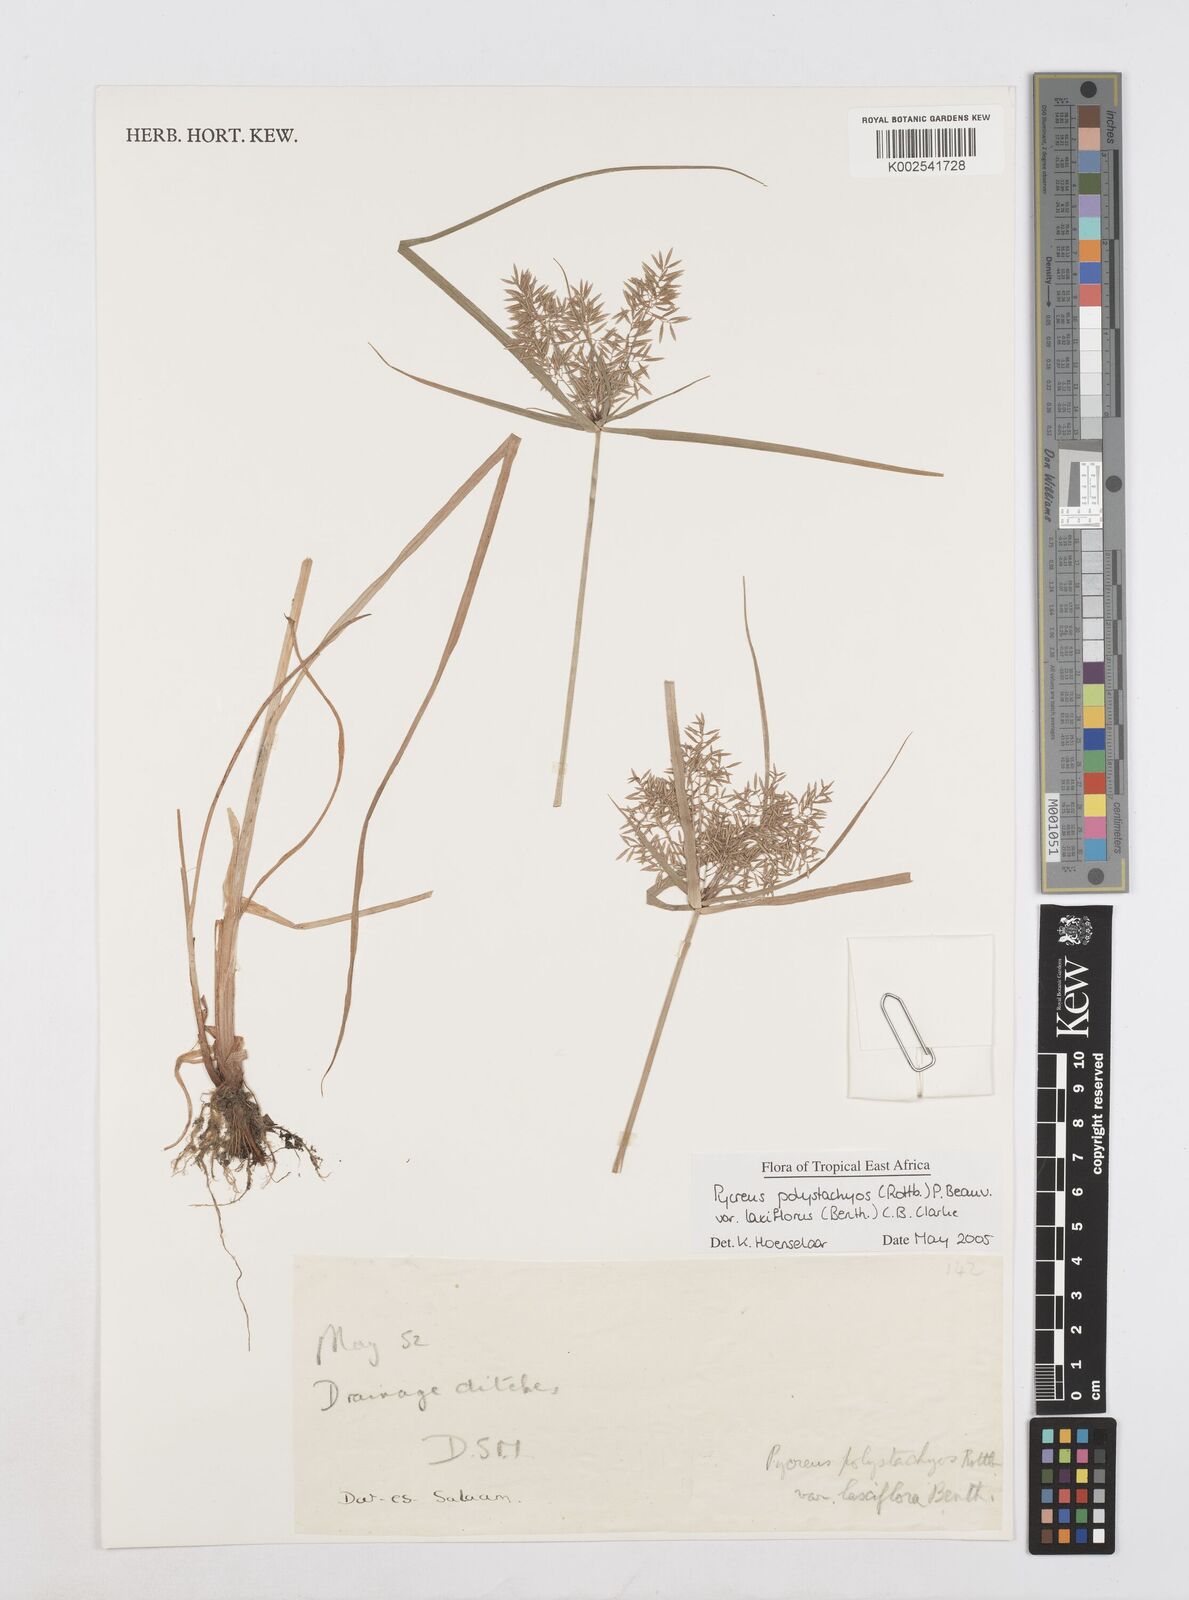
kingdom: Plantae
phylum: Tracheophyta
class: Liliopsida
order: Poales
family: Cyperaceae
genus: Cyperus
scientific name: Cyperus polystachyos
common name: Bunchy flat sedge
